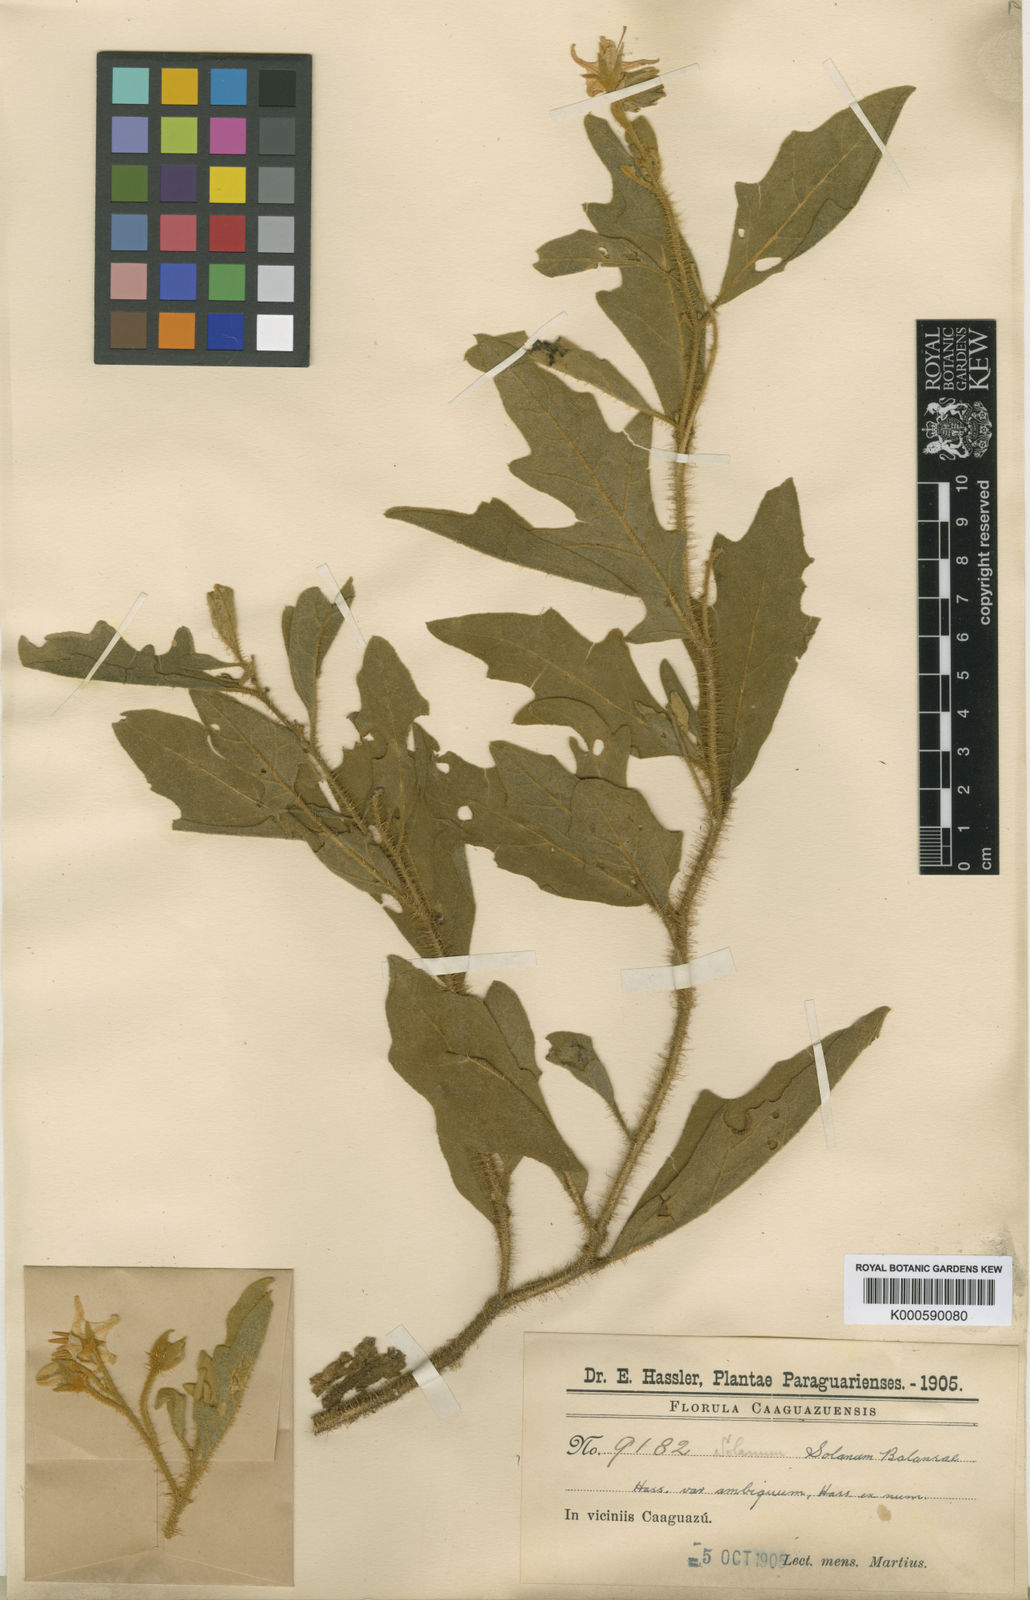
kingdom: Plantae
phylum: Tracheophyta
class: Magnoliopsida
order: Solanales
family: Solanaceae
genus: Solanum
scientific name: Solanum hasslerianum
